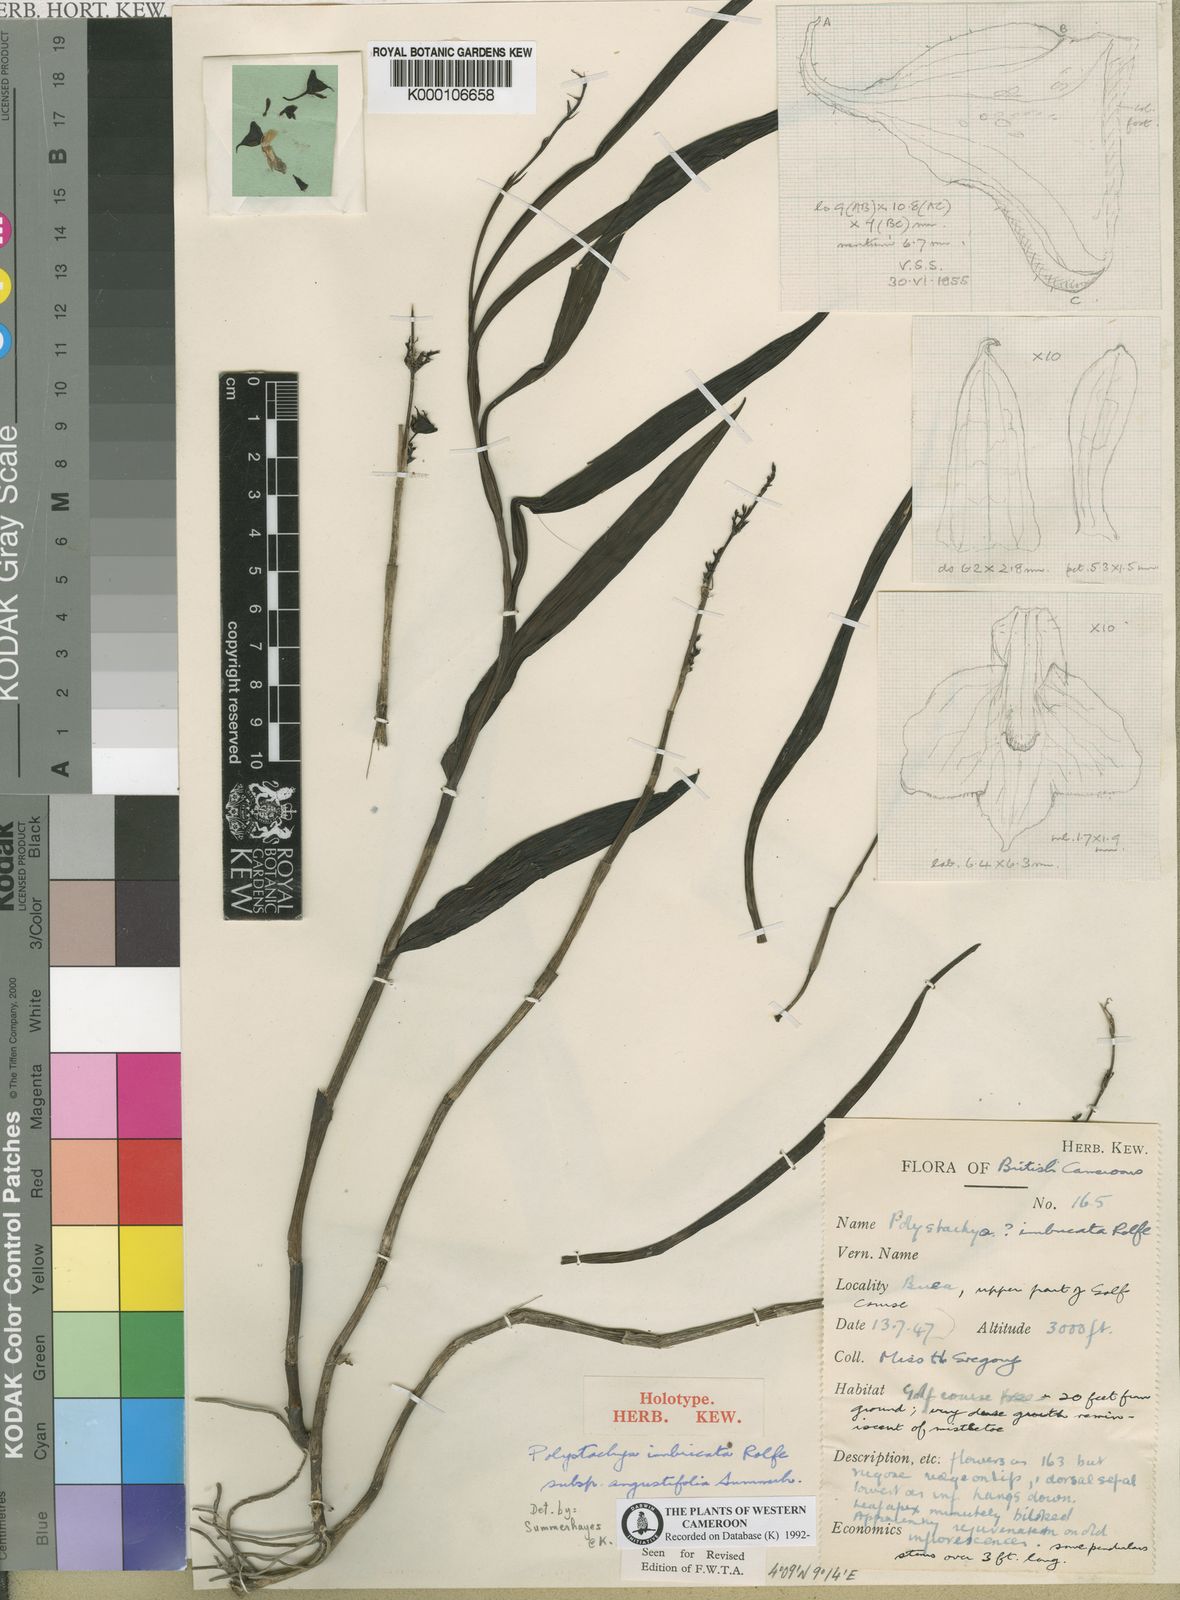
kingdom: Plantae
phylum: Tracheophyta
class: Liliopsida
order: Asparagales
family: Orchidaceae
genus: Polystachya
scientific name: Polystachya albescens
